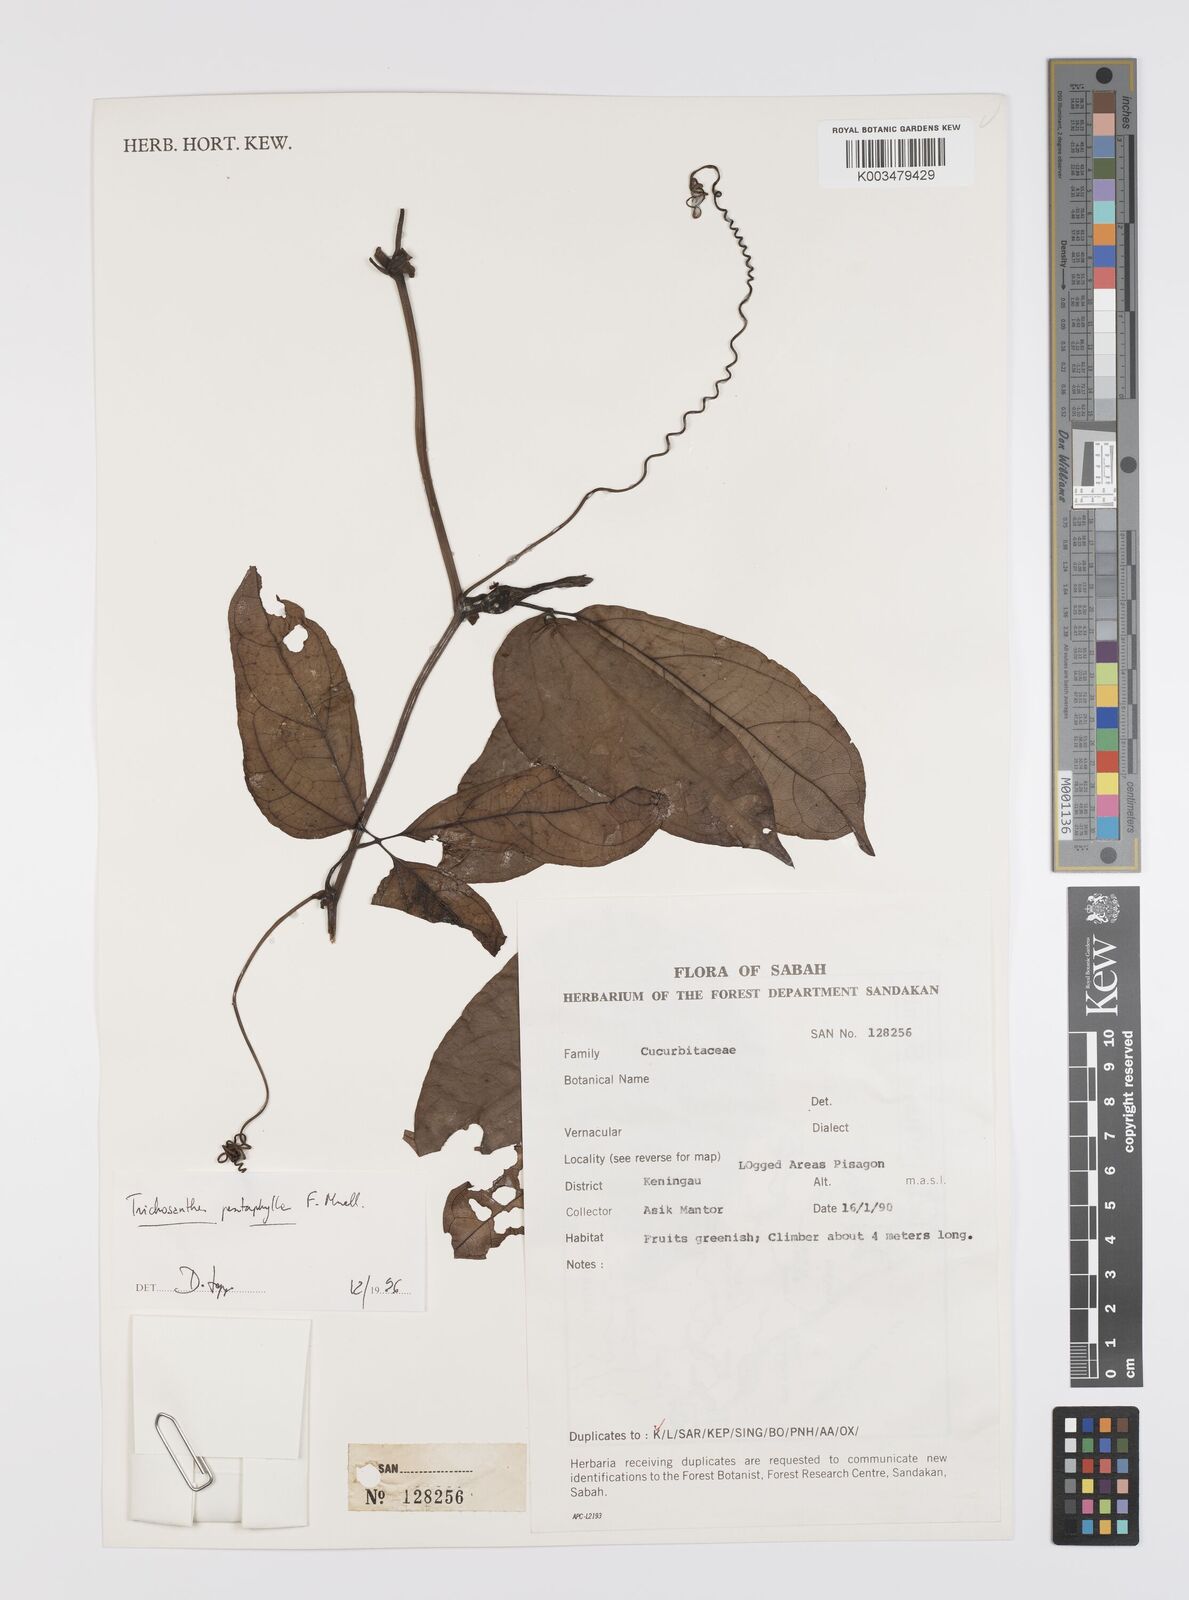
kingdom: Plantae
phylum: Tracheophyta
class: Magnoliopsida
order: Cucurbitales
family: Cucurbitaceae
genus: Trichosanthes
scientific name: Trichosanthes pentaphylla
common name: Red gourd
